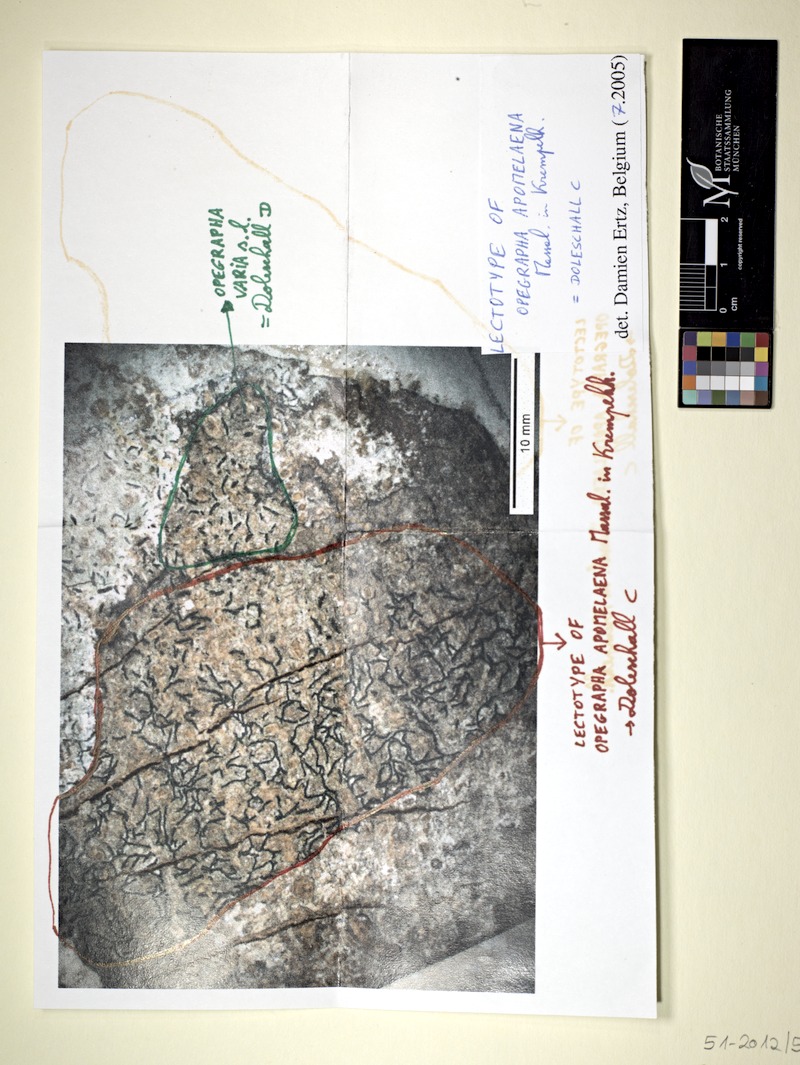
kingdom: Fungi
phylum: Ascomycota
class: Arthoniomycetes
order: Arthoniales
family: Lecanographaceae
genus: Alyxoria
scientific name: Alyxoria apomelaena
